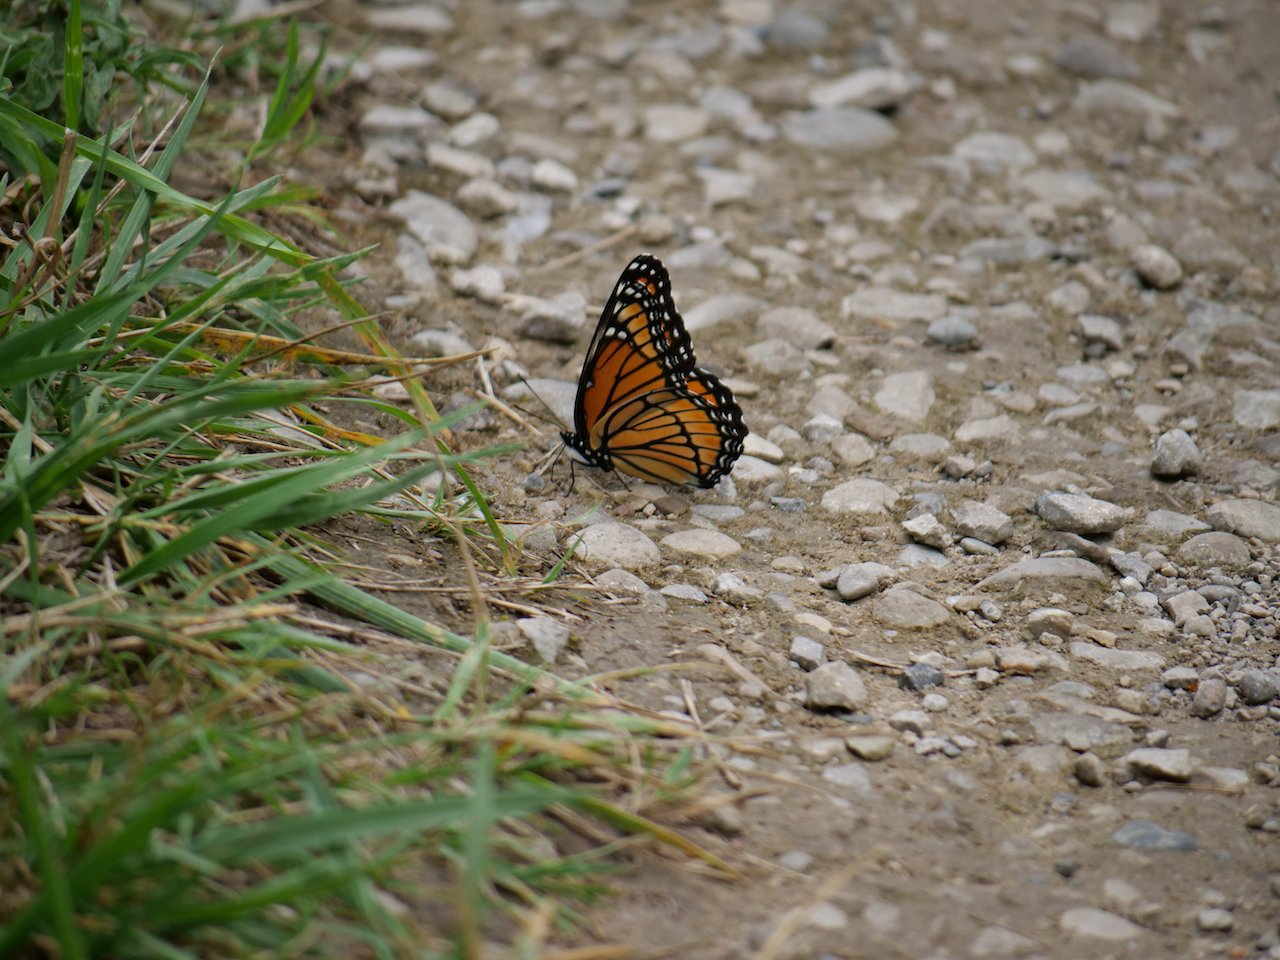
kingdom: Animalia
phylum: Arthropoda
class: Insecta
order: Lepidoptera
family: Nymphalidae
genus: Limenitis
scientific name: Limenitis archippus
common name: Viceroy
